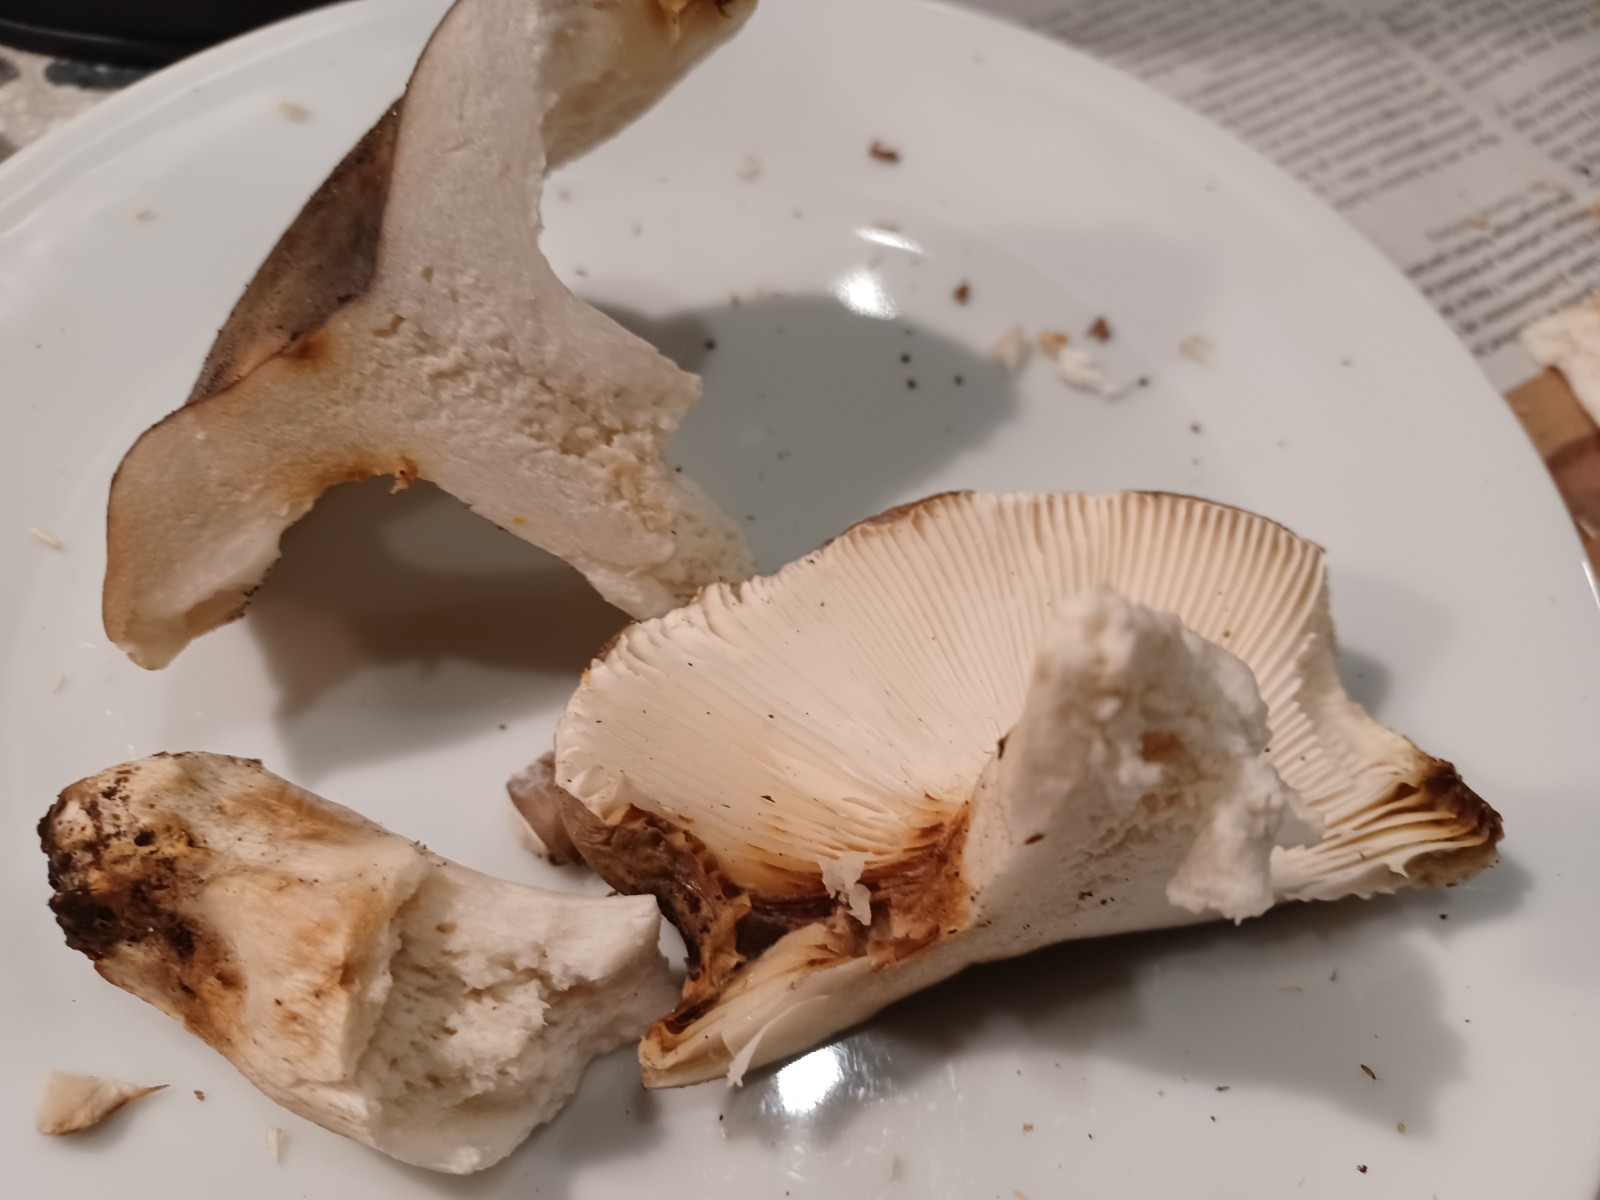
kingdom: Fungi
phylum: Basidiomycota
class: Agaricomycetes
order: Russulales
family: Russulaceae
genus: Russula
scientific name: Russula
